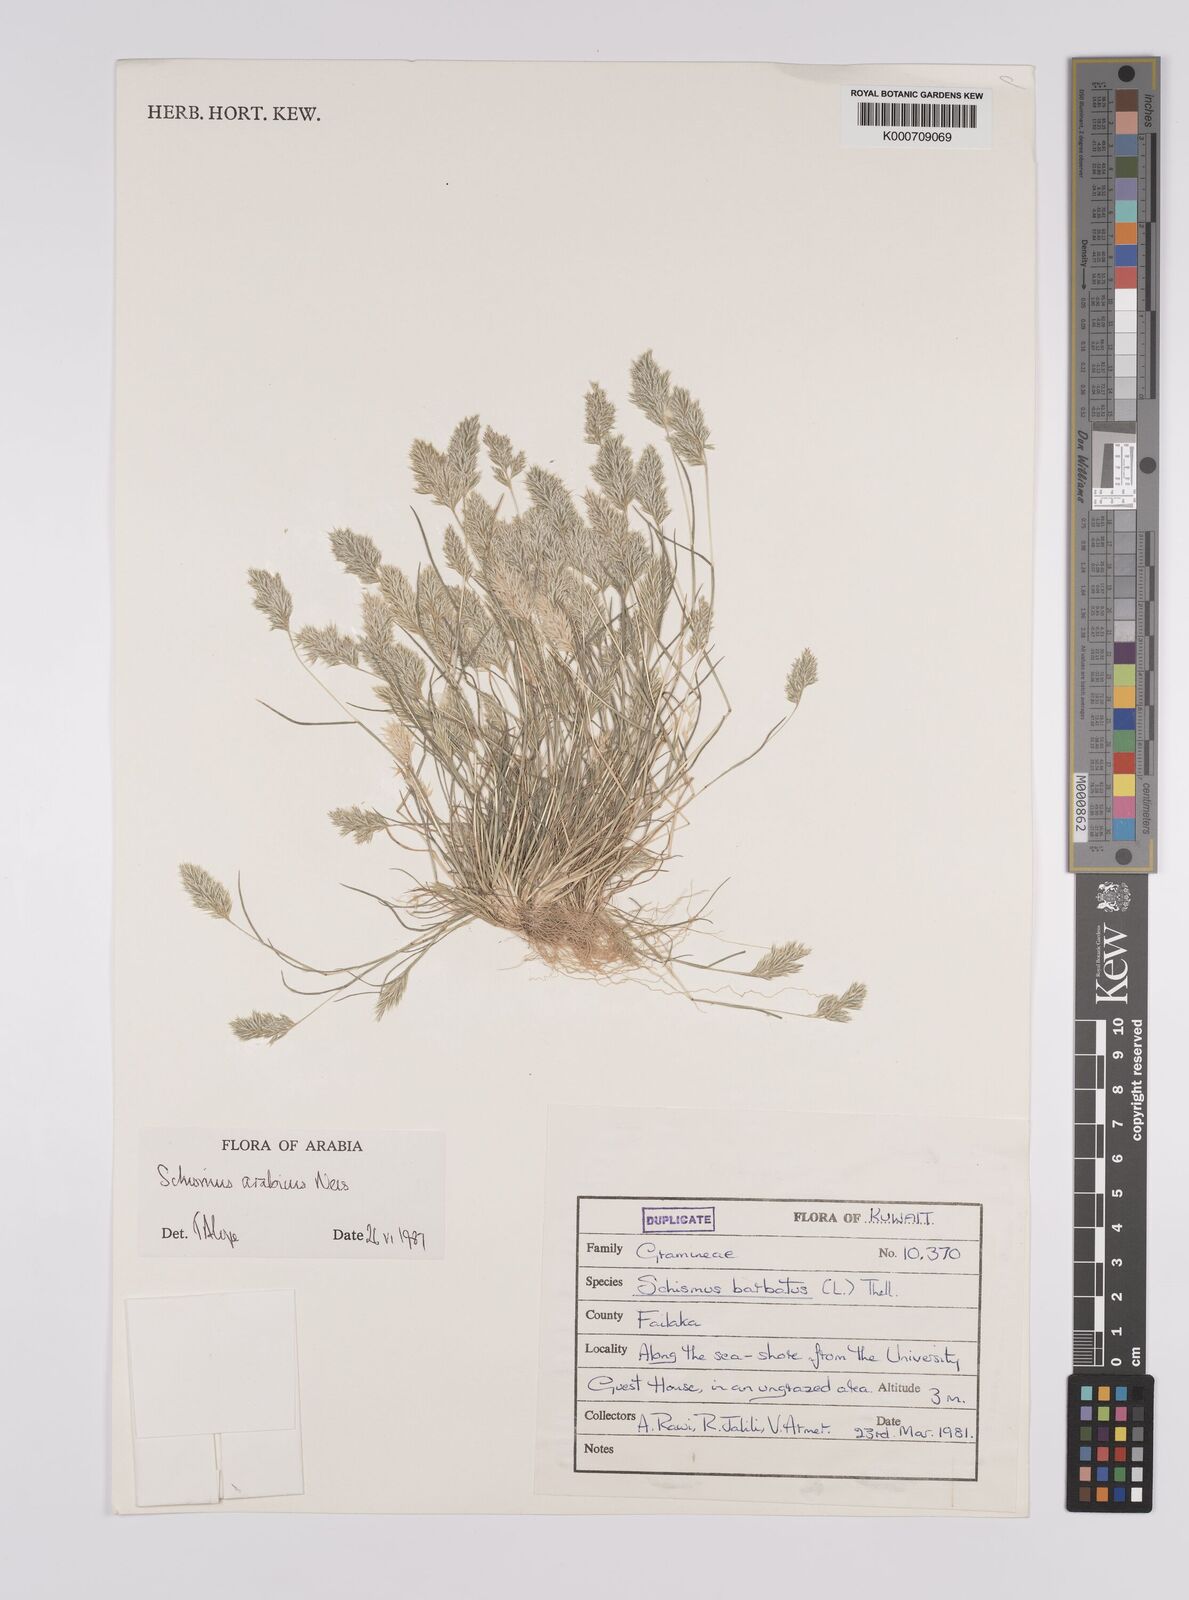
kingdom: Plantae
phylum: Tracheophyta
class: Liliopsida
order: Poales
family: Poaceae
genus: Schismus
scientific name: Schismus arabicus
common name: Arabian schismus
